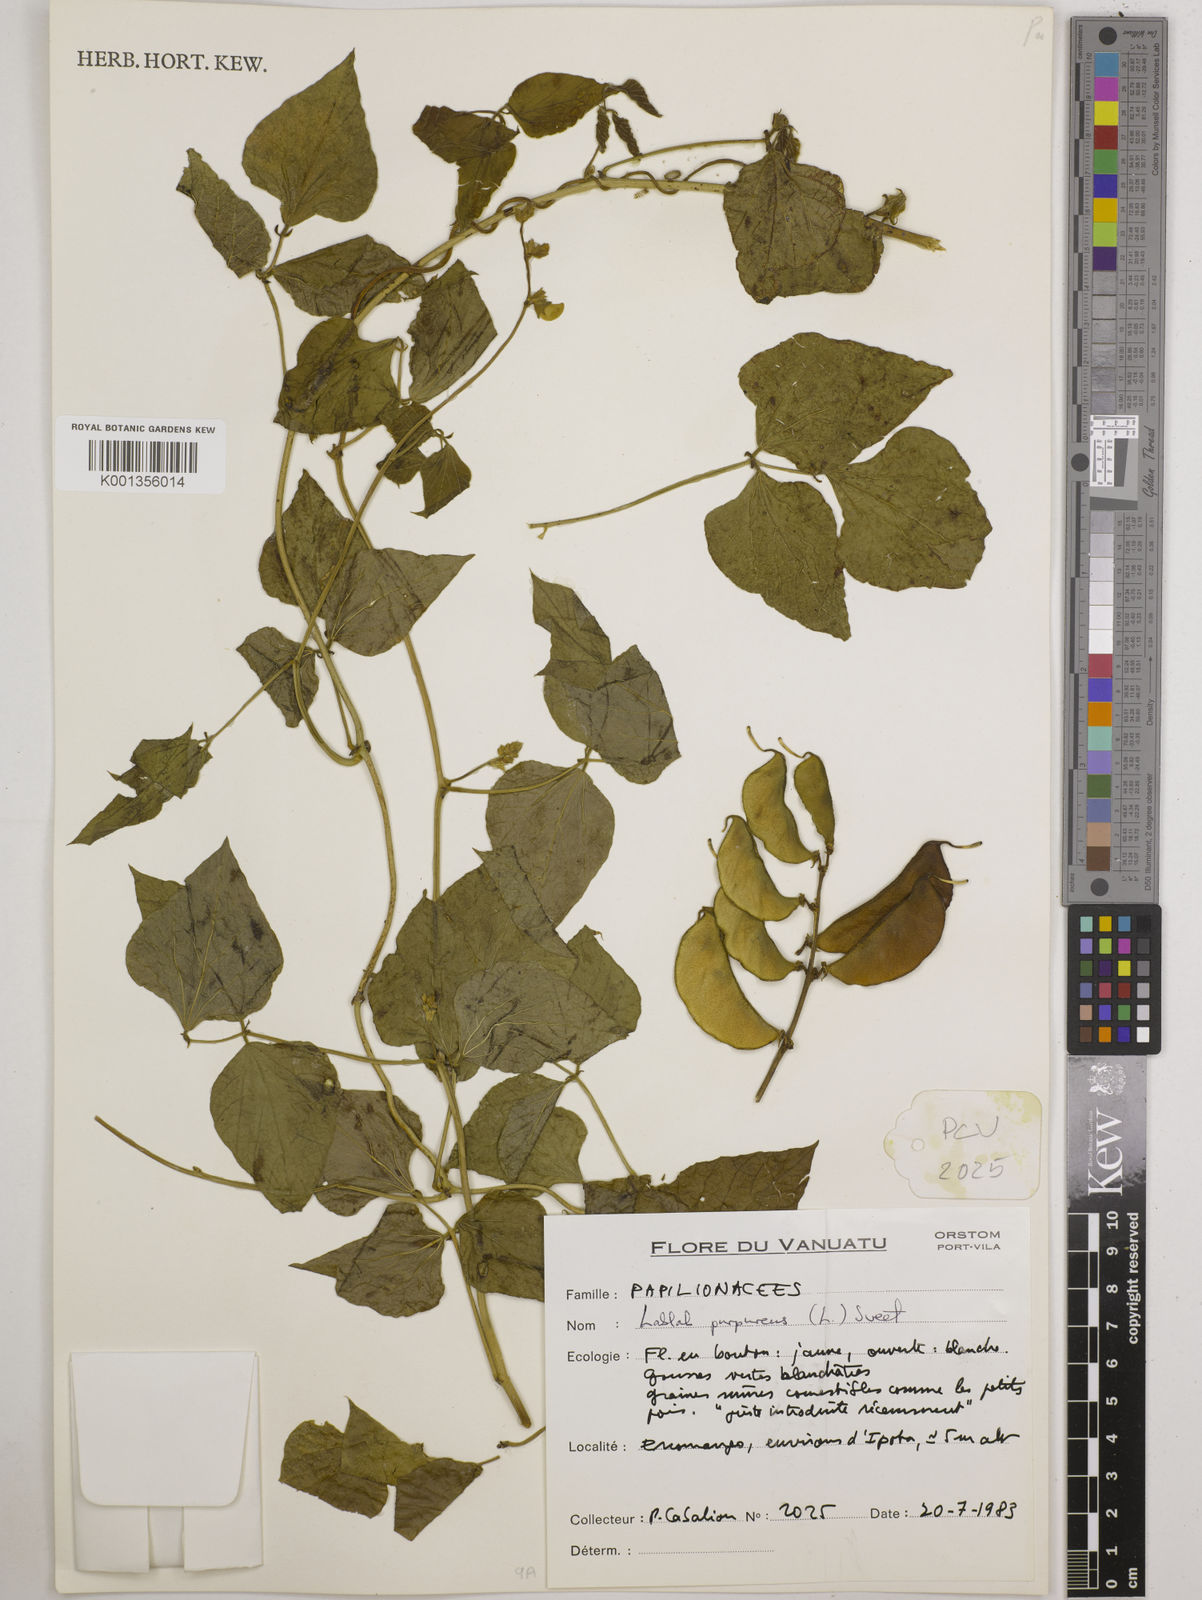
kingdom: Plantae
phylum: Tracheophyta
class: Magnoliopsida
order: Fabales
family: Fabaceae
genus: Lablab
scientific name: Lablab purpureus
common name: Lablab-bean
